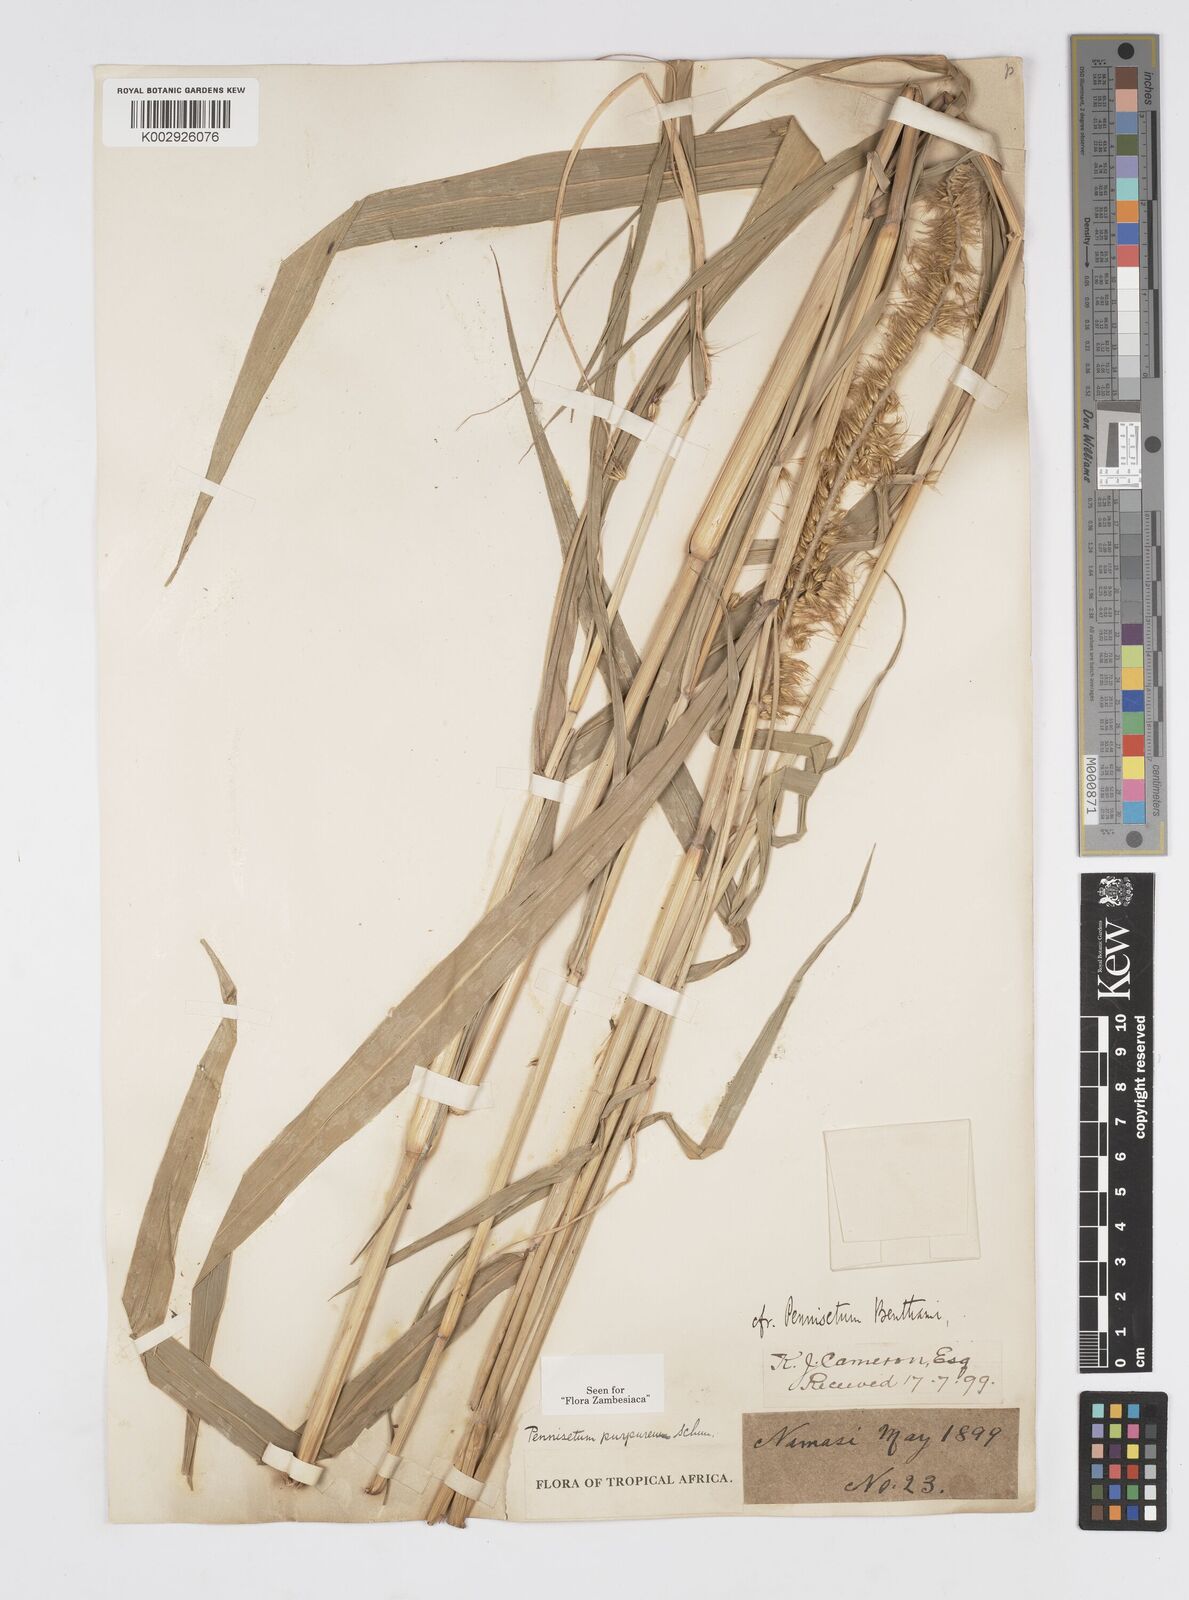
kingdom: Plantae
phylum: Tracheophyta
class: Liliopsida
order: Poales
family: Poaceae
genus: Cenchrus
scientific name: Cenchrus purpureus
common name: Elephant grass
